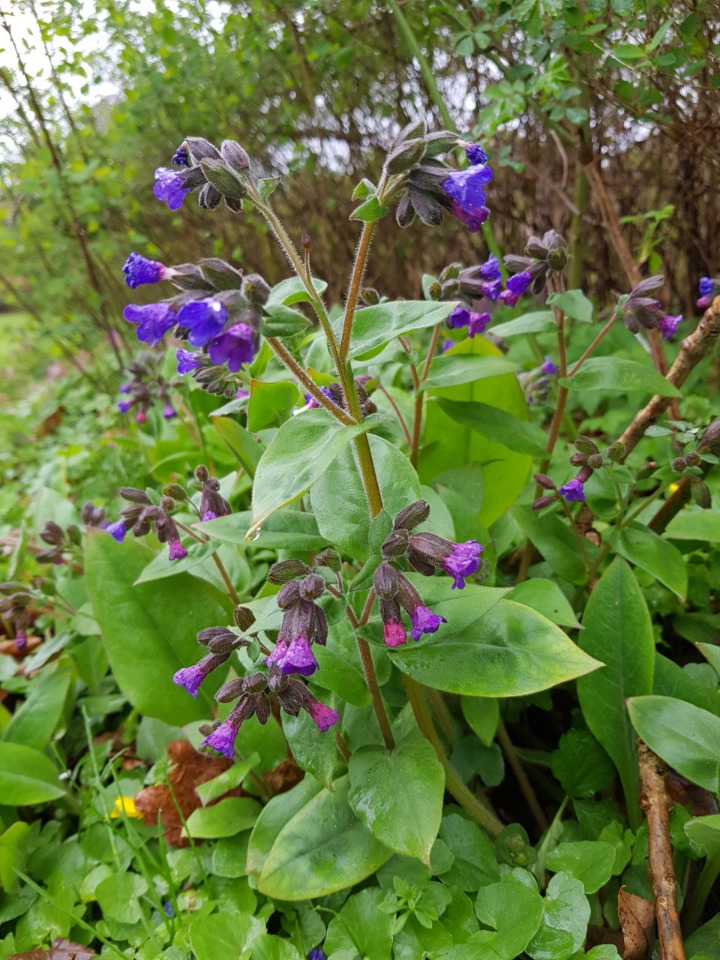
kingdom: Plantae
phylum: Tracheophyta
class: Magnoliopsida
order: Boraginales
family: Boraginaceae
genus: Pulmonaria
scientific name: Pulmonaria
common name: Lungeurtslægten
